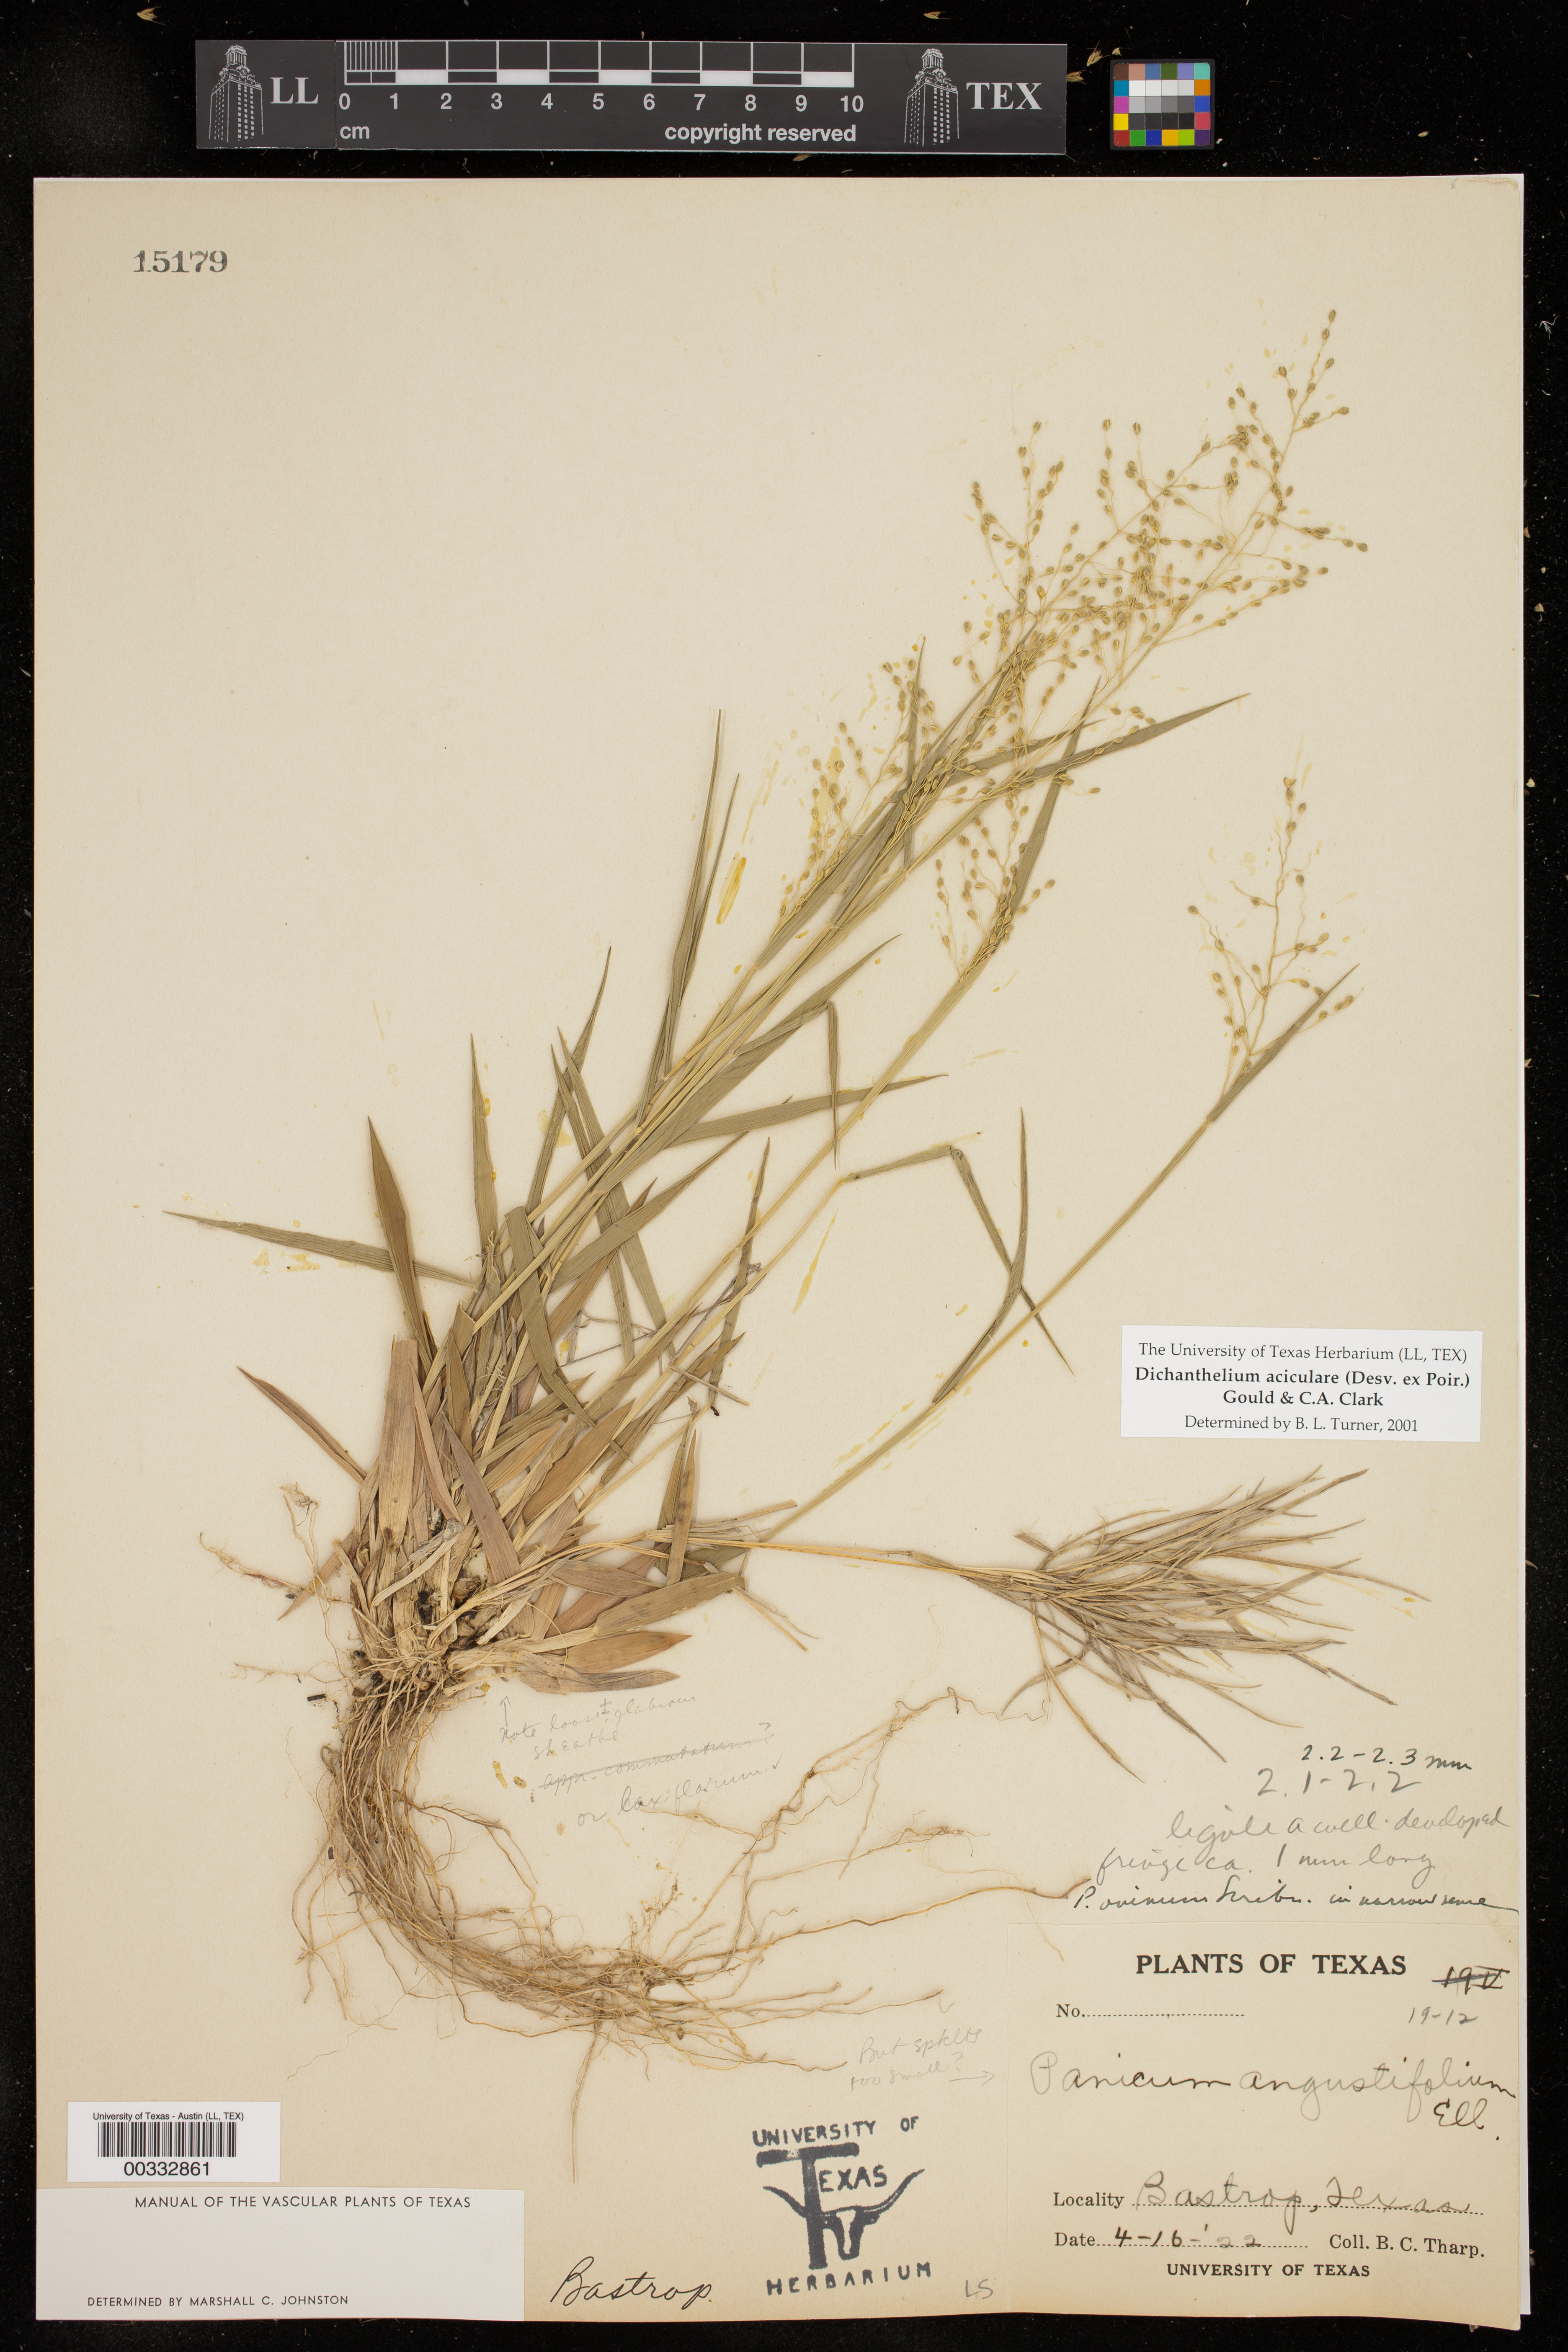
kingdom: Plantae
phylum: Tracheophyta
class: Liliopsida
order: Poales
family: Poaceae
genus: Dichanthelium
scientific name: Dichanthelium aciculare
